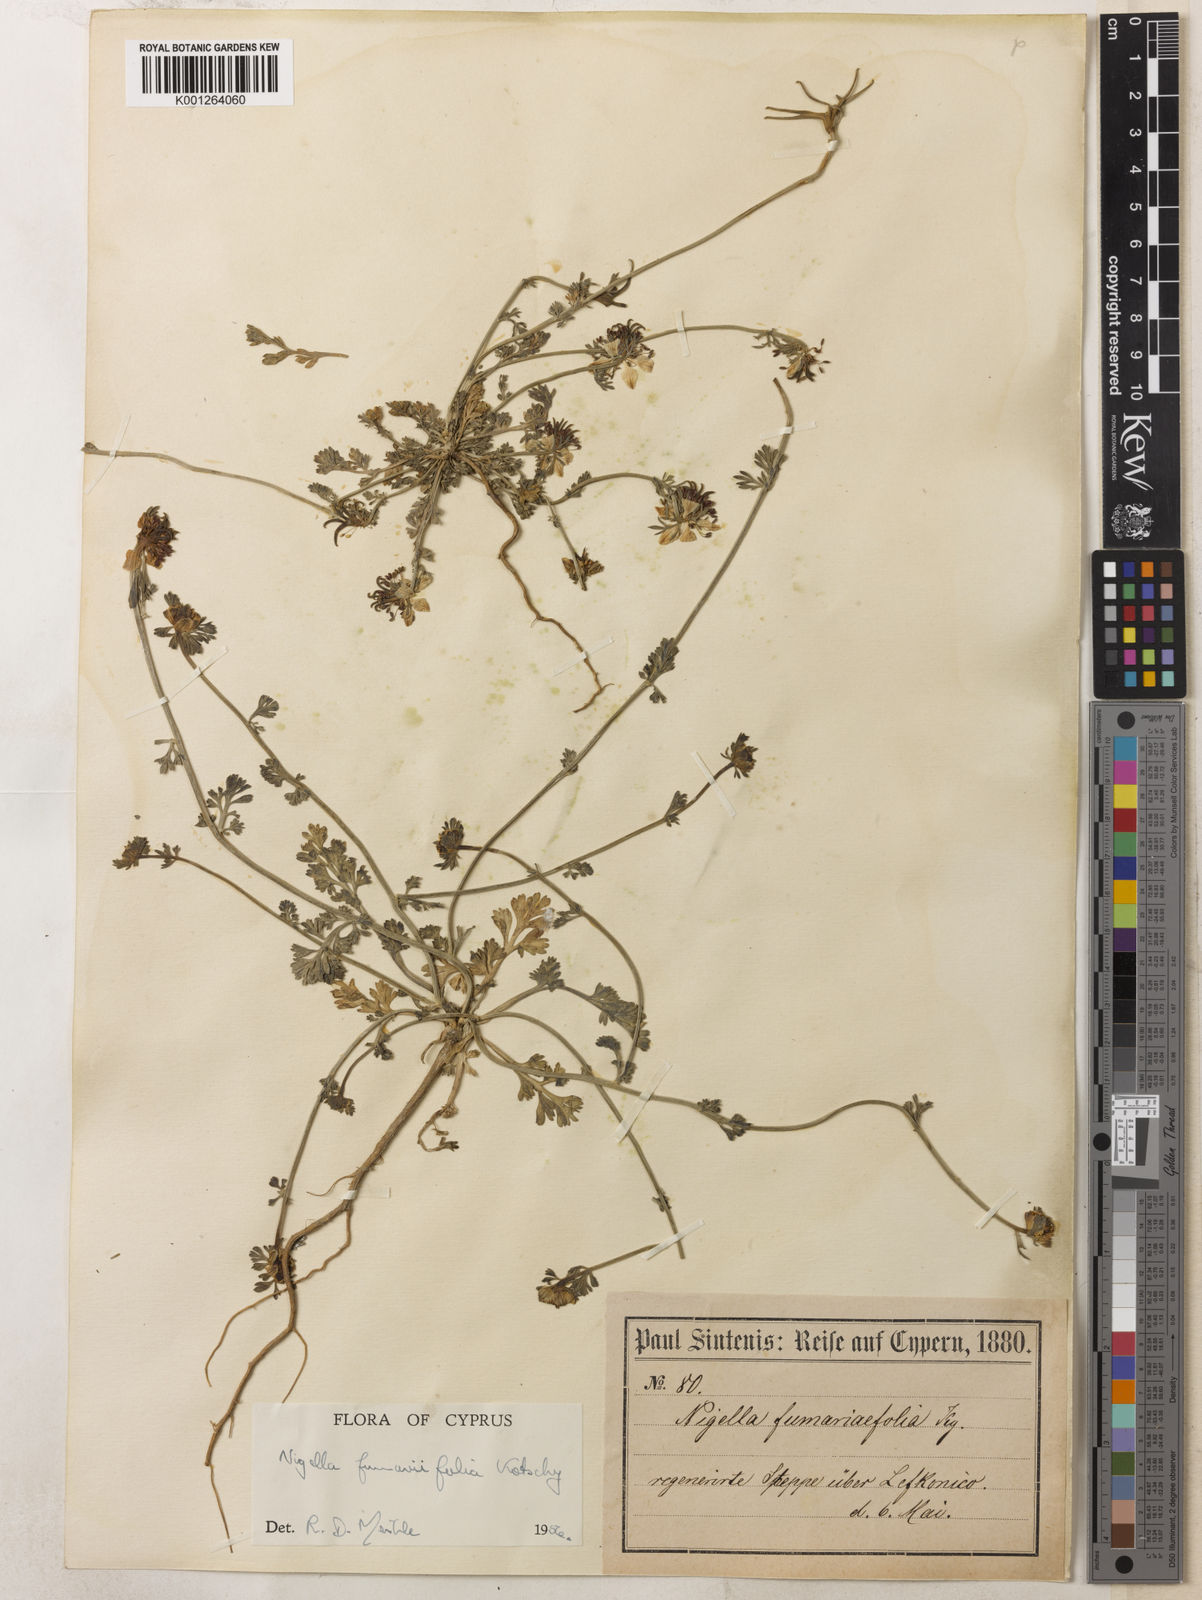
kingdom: Plantae
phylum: Tracheophyta
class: Magnoliopsida
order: Ranunculales
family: Ranunculaceae
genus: Nigella
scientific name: Nigella
